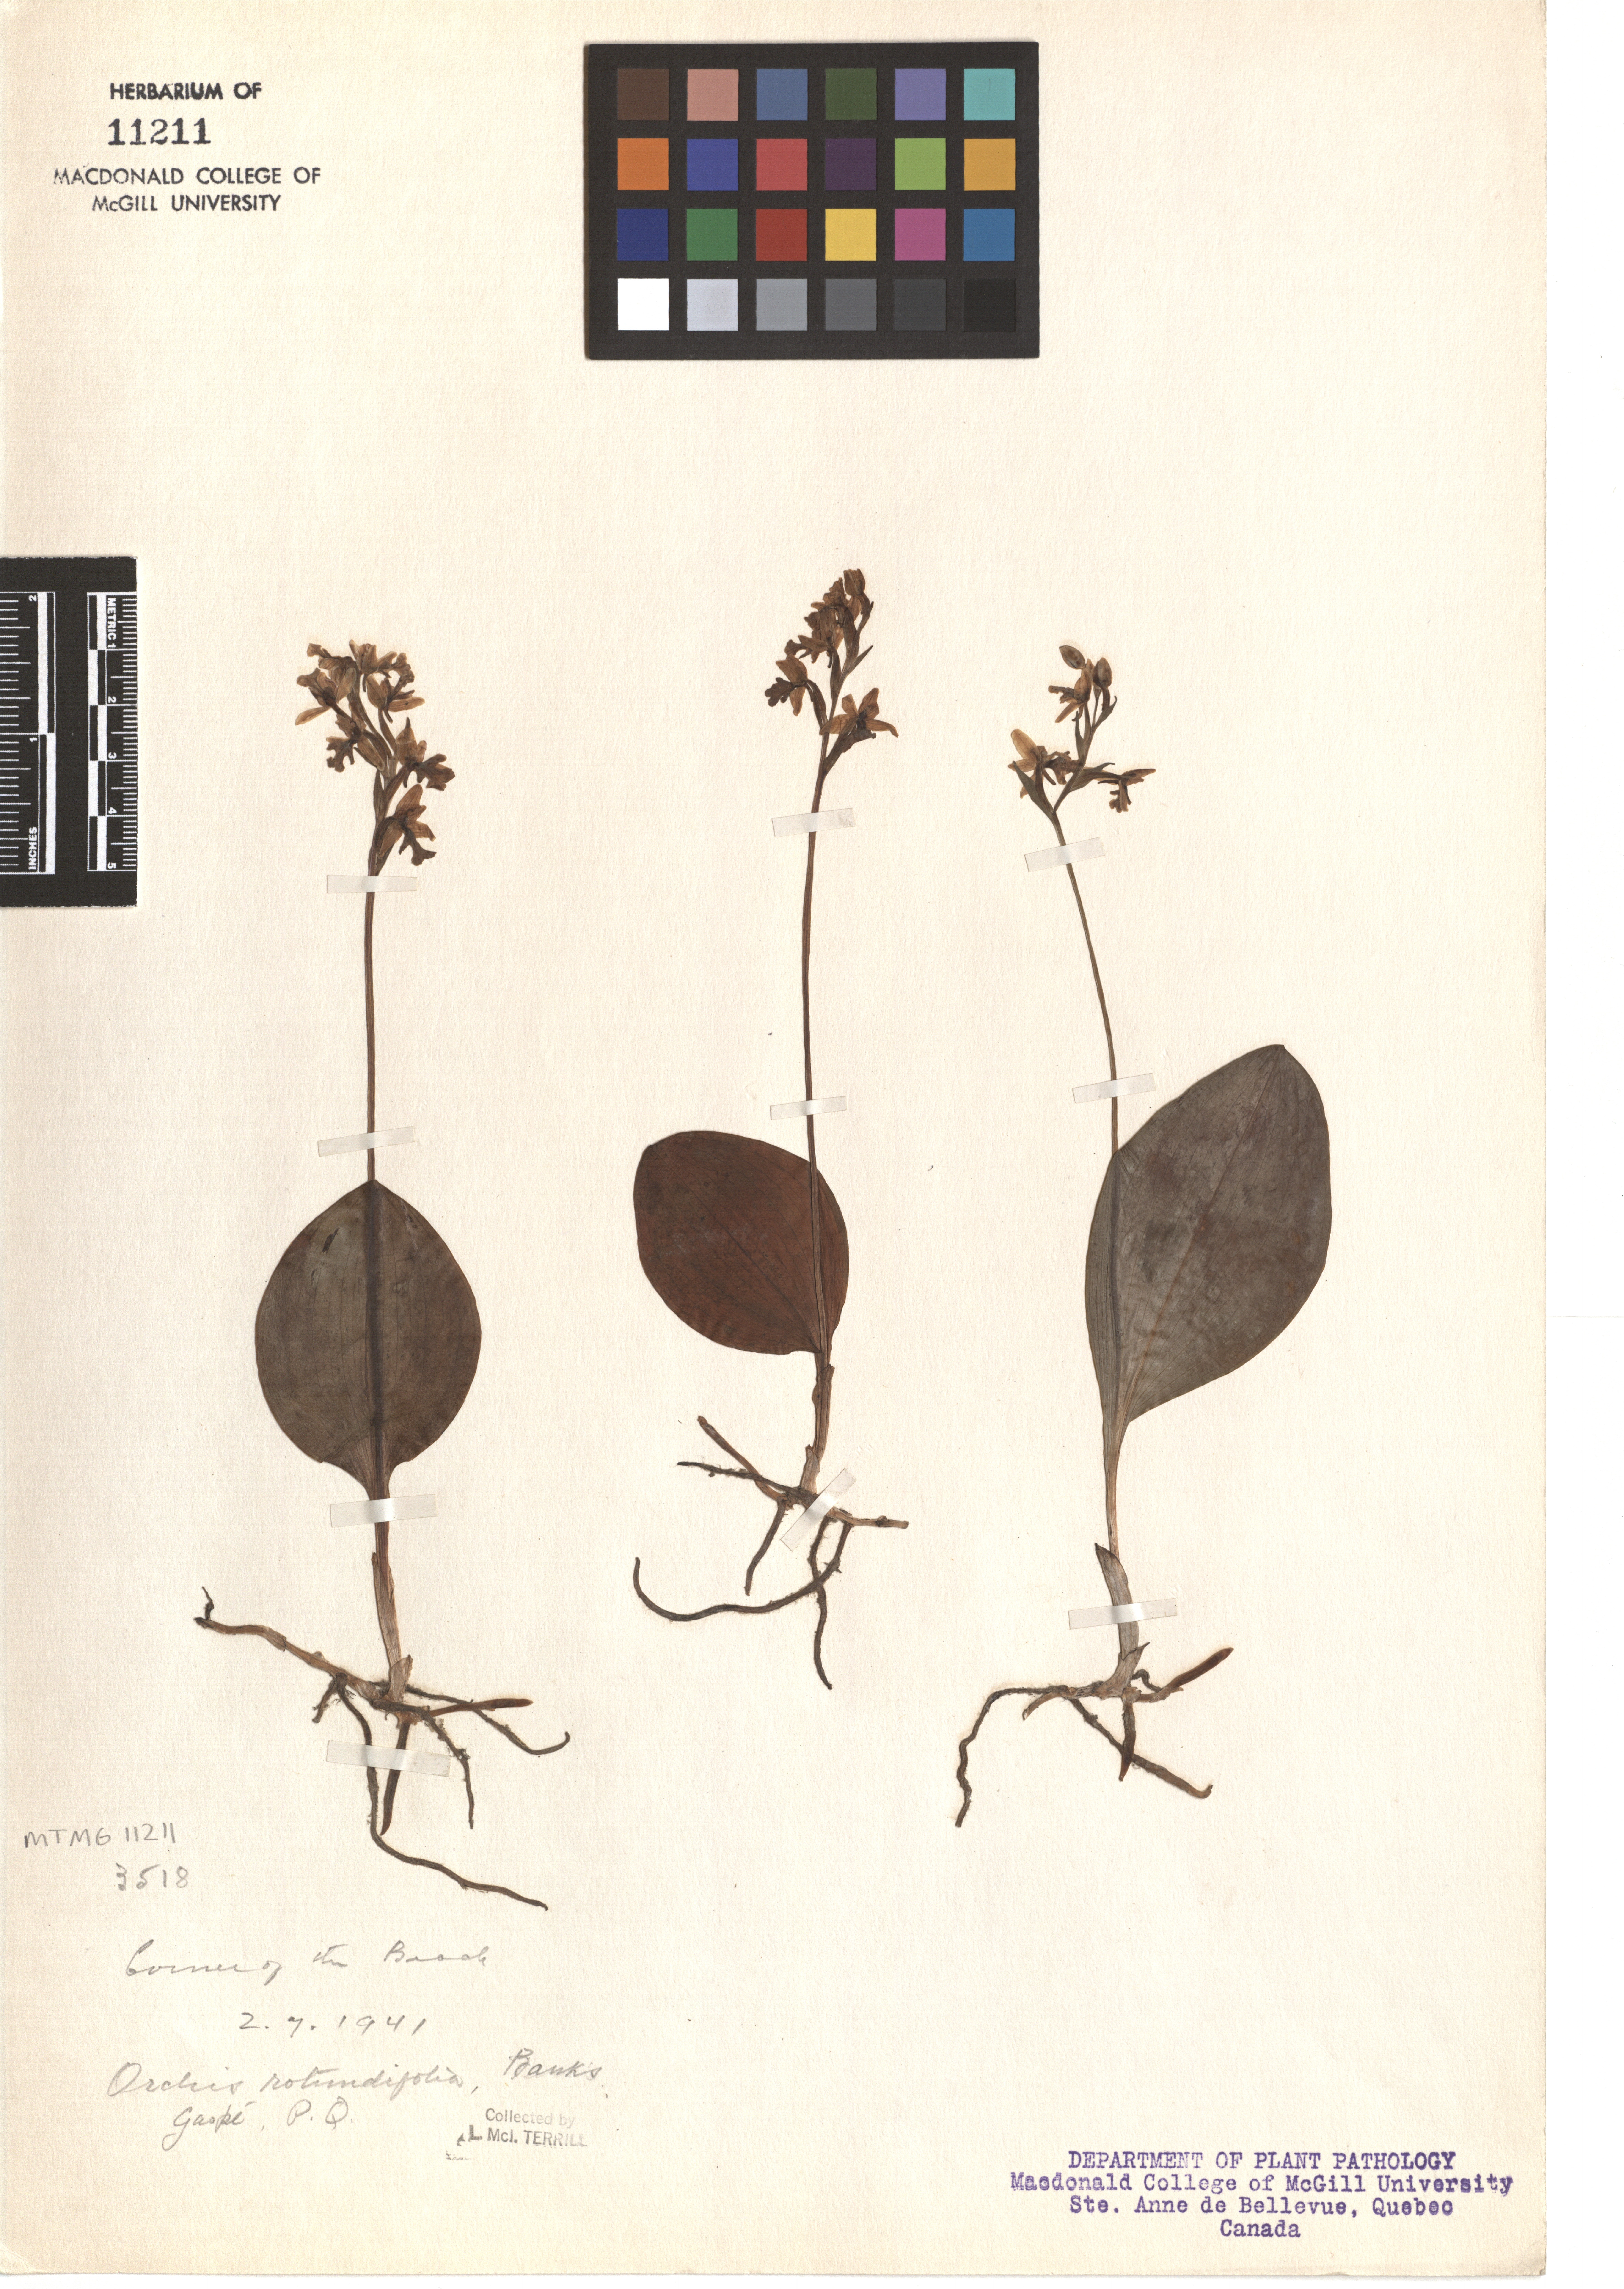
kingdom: Plantae
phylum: Tracheophyta
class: Liliopsida
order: Asparagales
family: Orchidaceae
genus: Galearis
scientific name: Galearis rotundifolia
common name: One-leaved orchis
